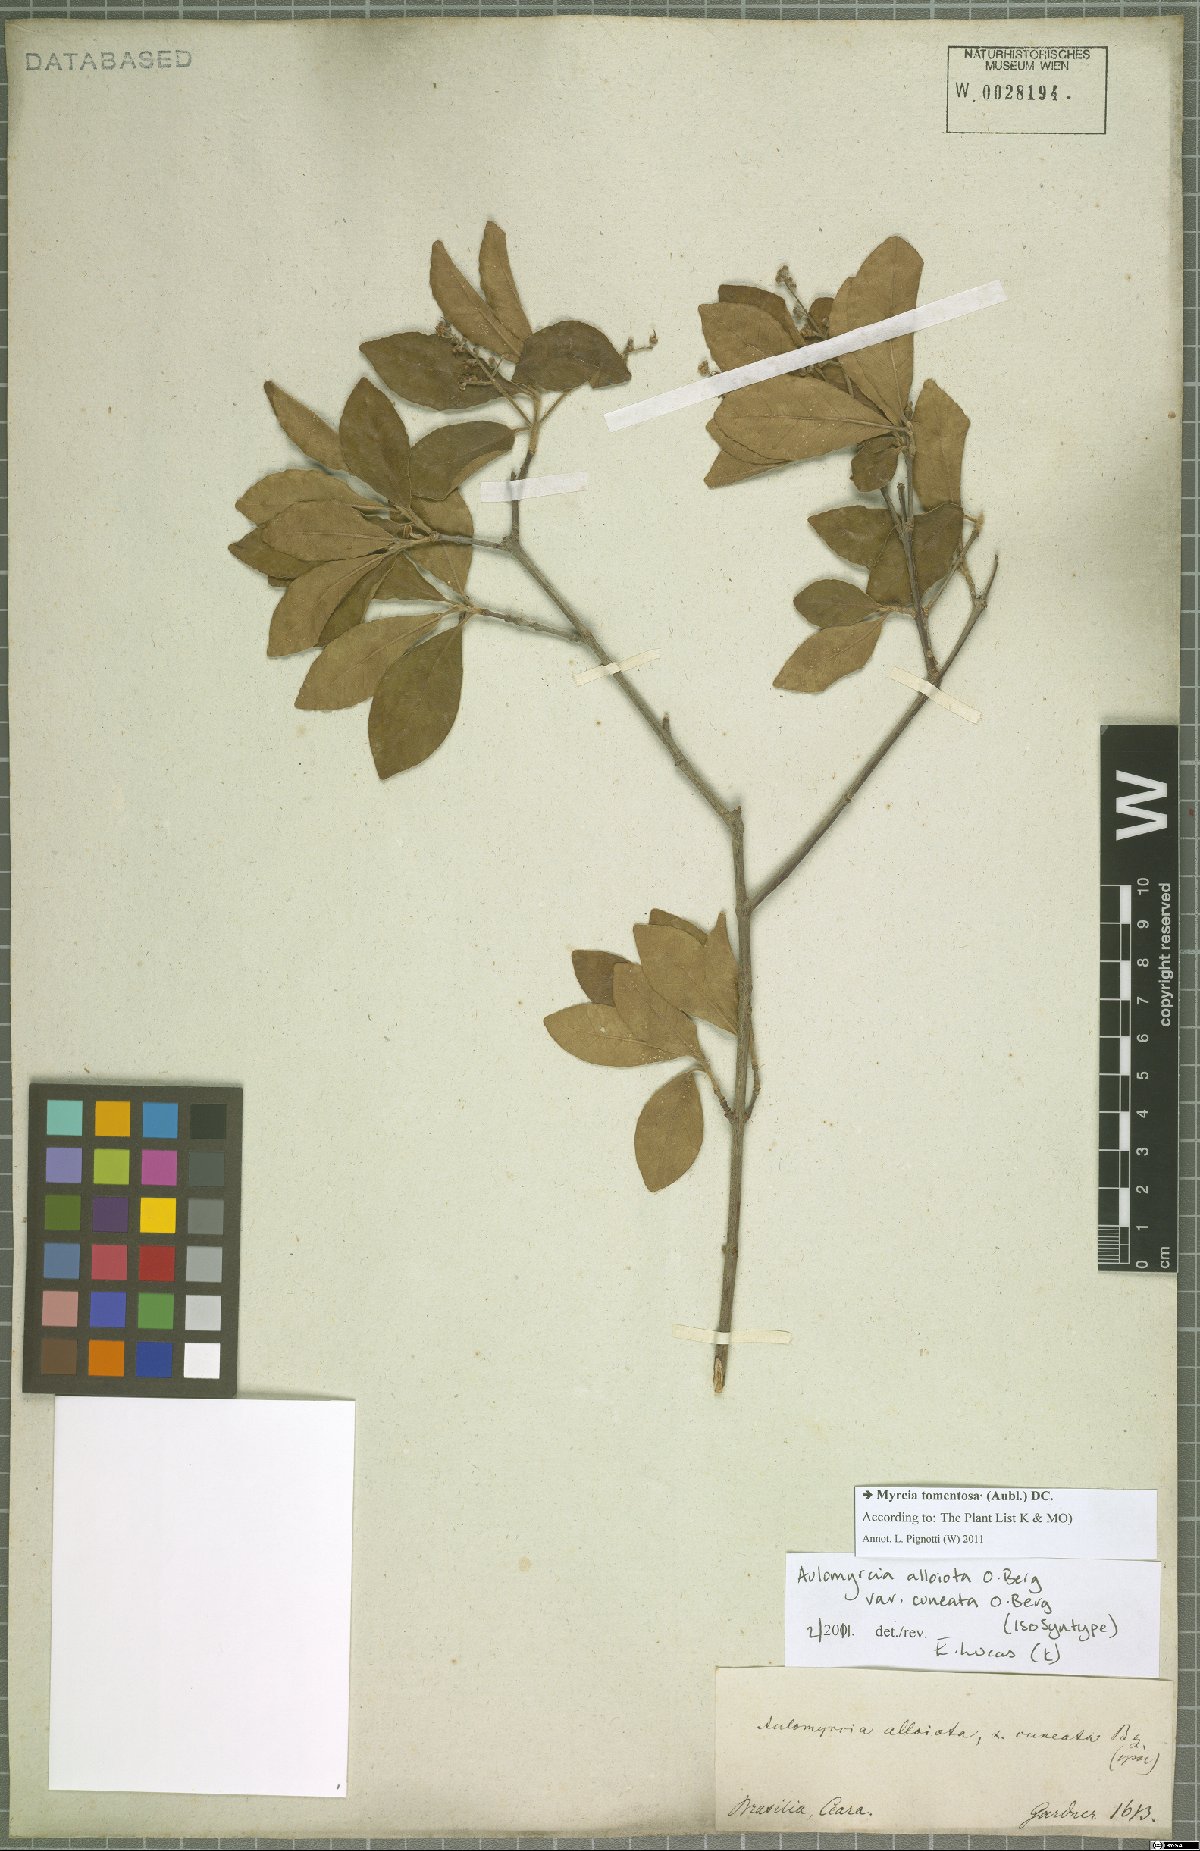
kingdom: Plantae
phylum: Tracheophyta
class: Magnoliopsida
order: Myrtales
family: Myrtaceae
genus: Myrcia
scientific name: Myrcia tomentosa
